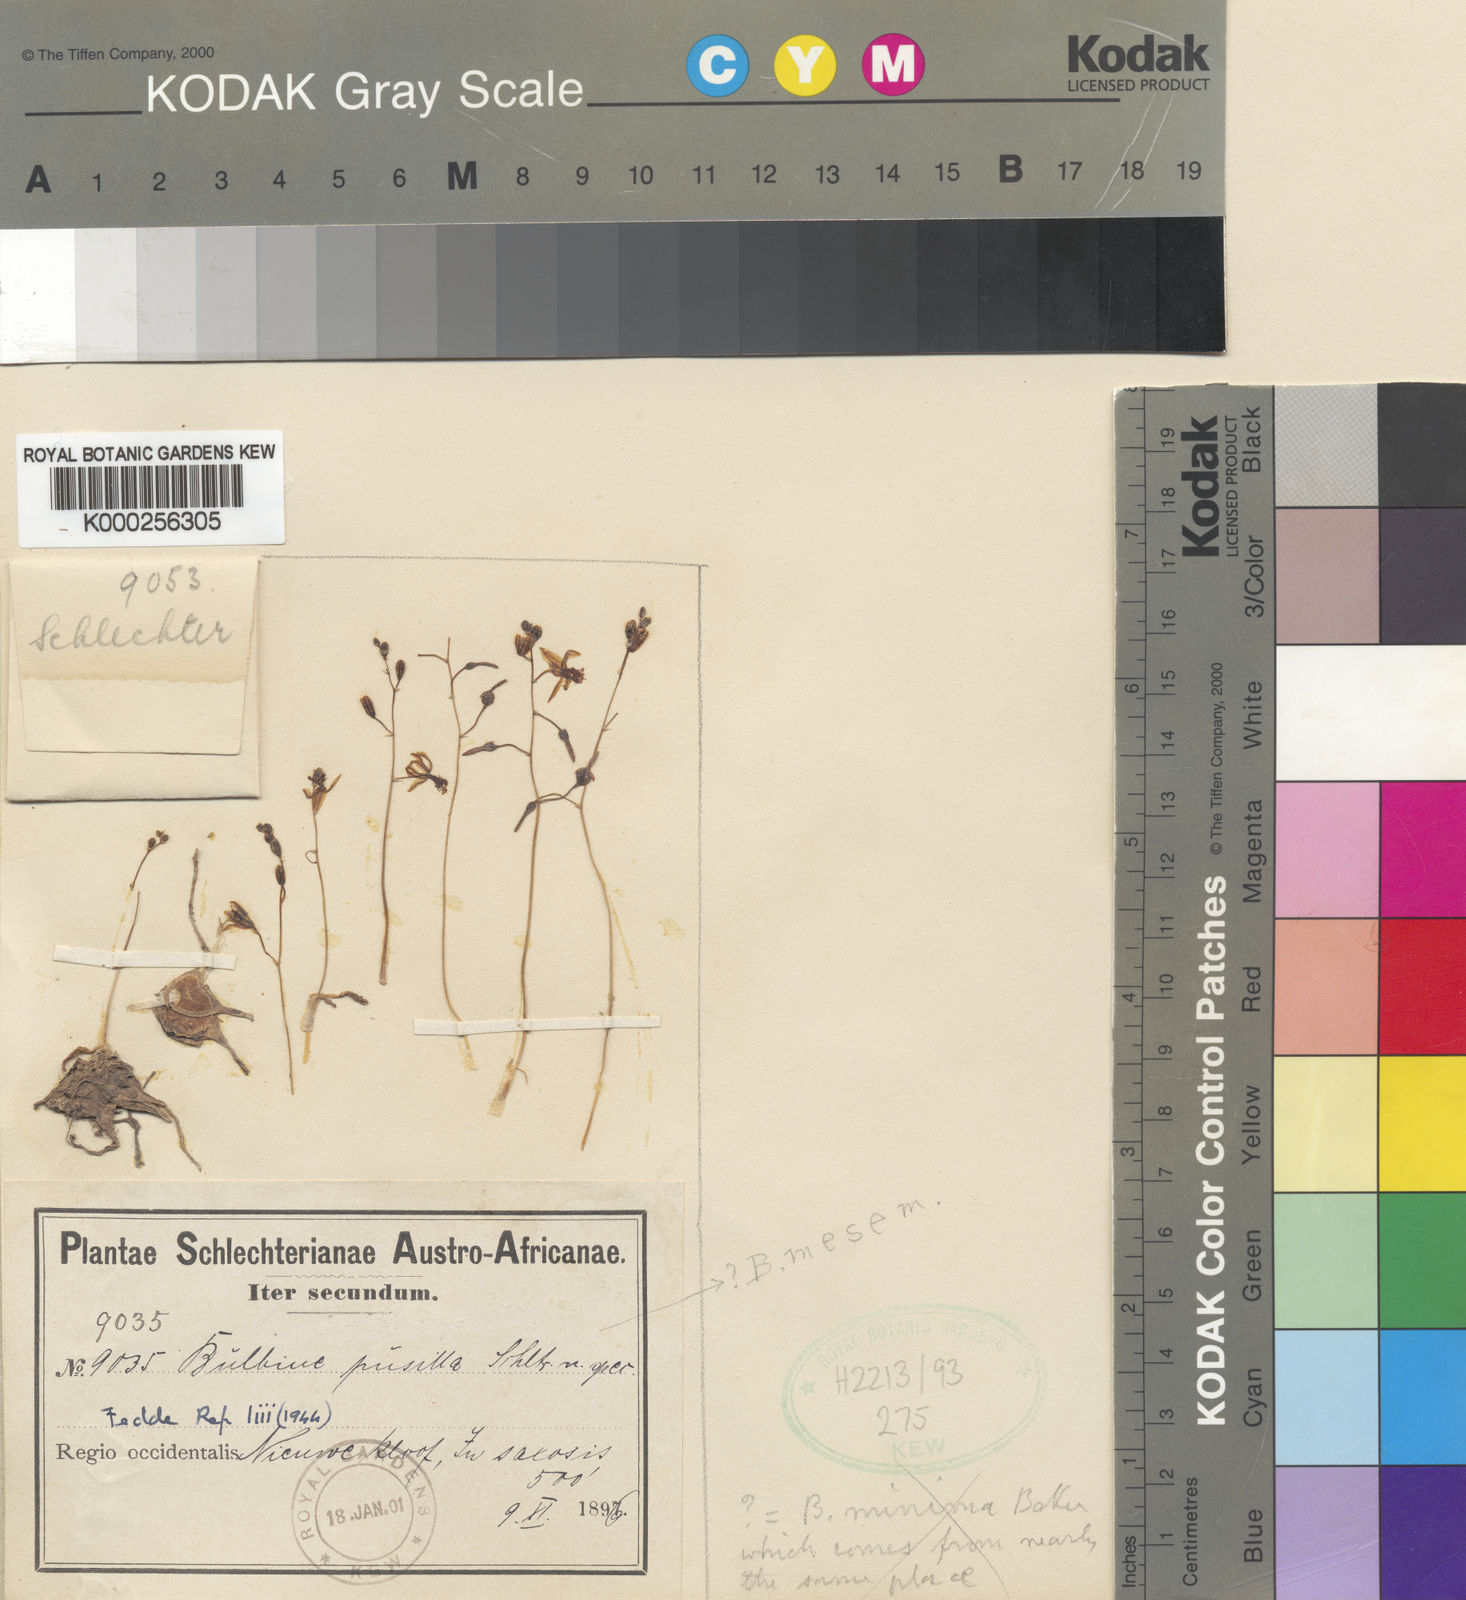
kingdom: Plantae
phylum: Tracheophyta
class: Liliopsida
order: Asparagales
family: Asphodelaceae
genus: Bulbine
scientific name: Bulbine pusilla
